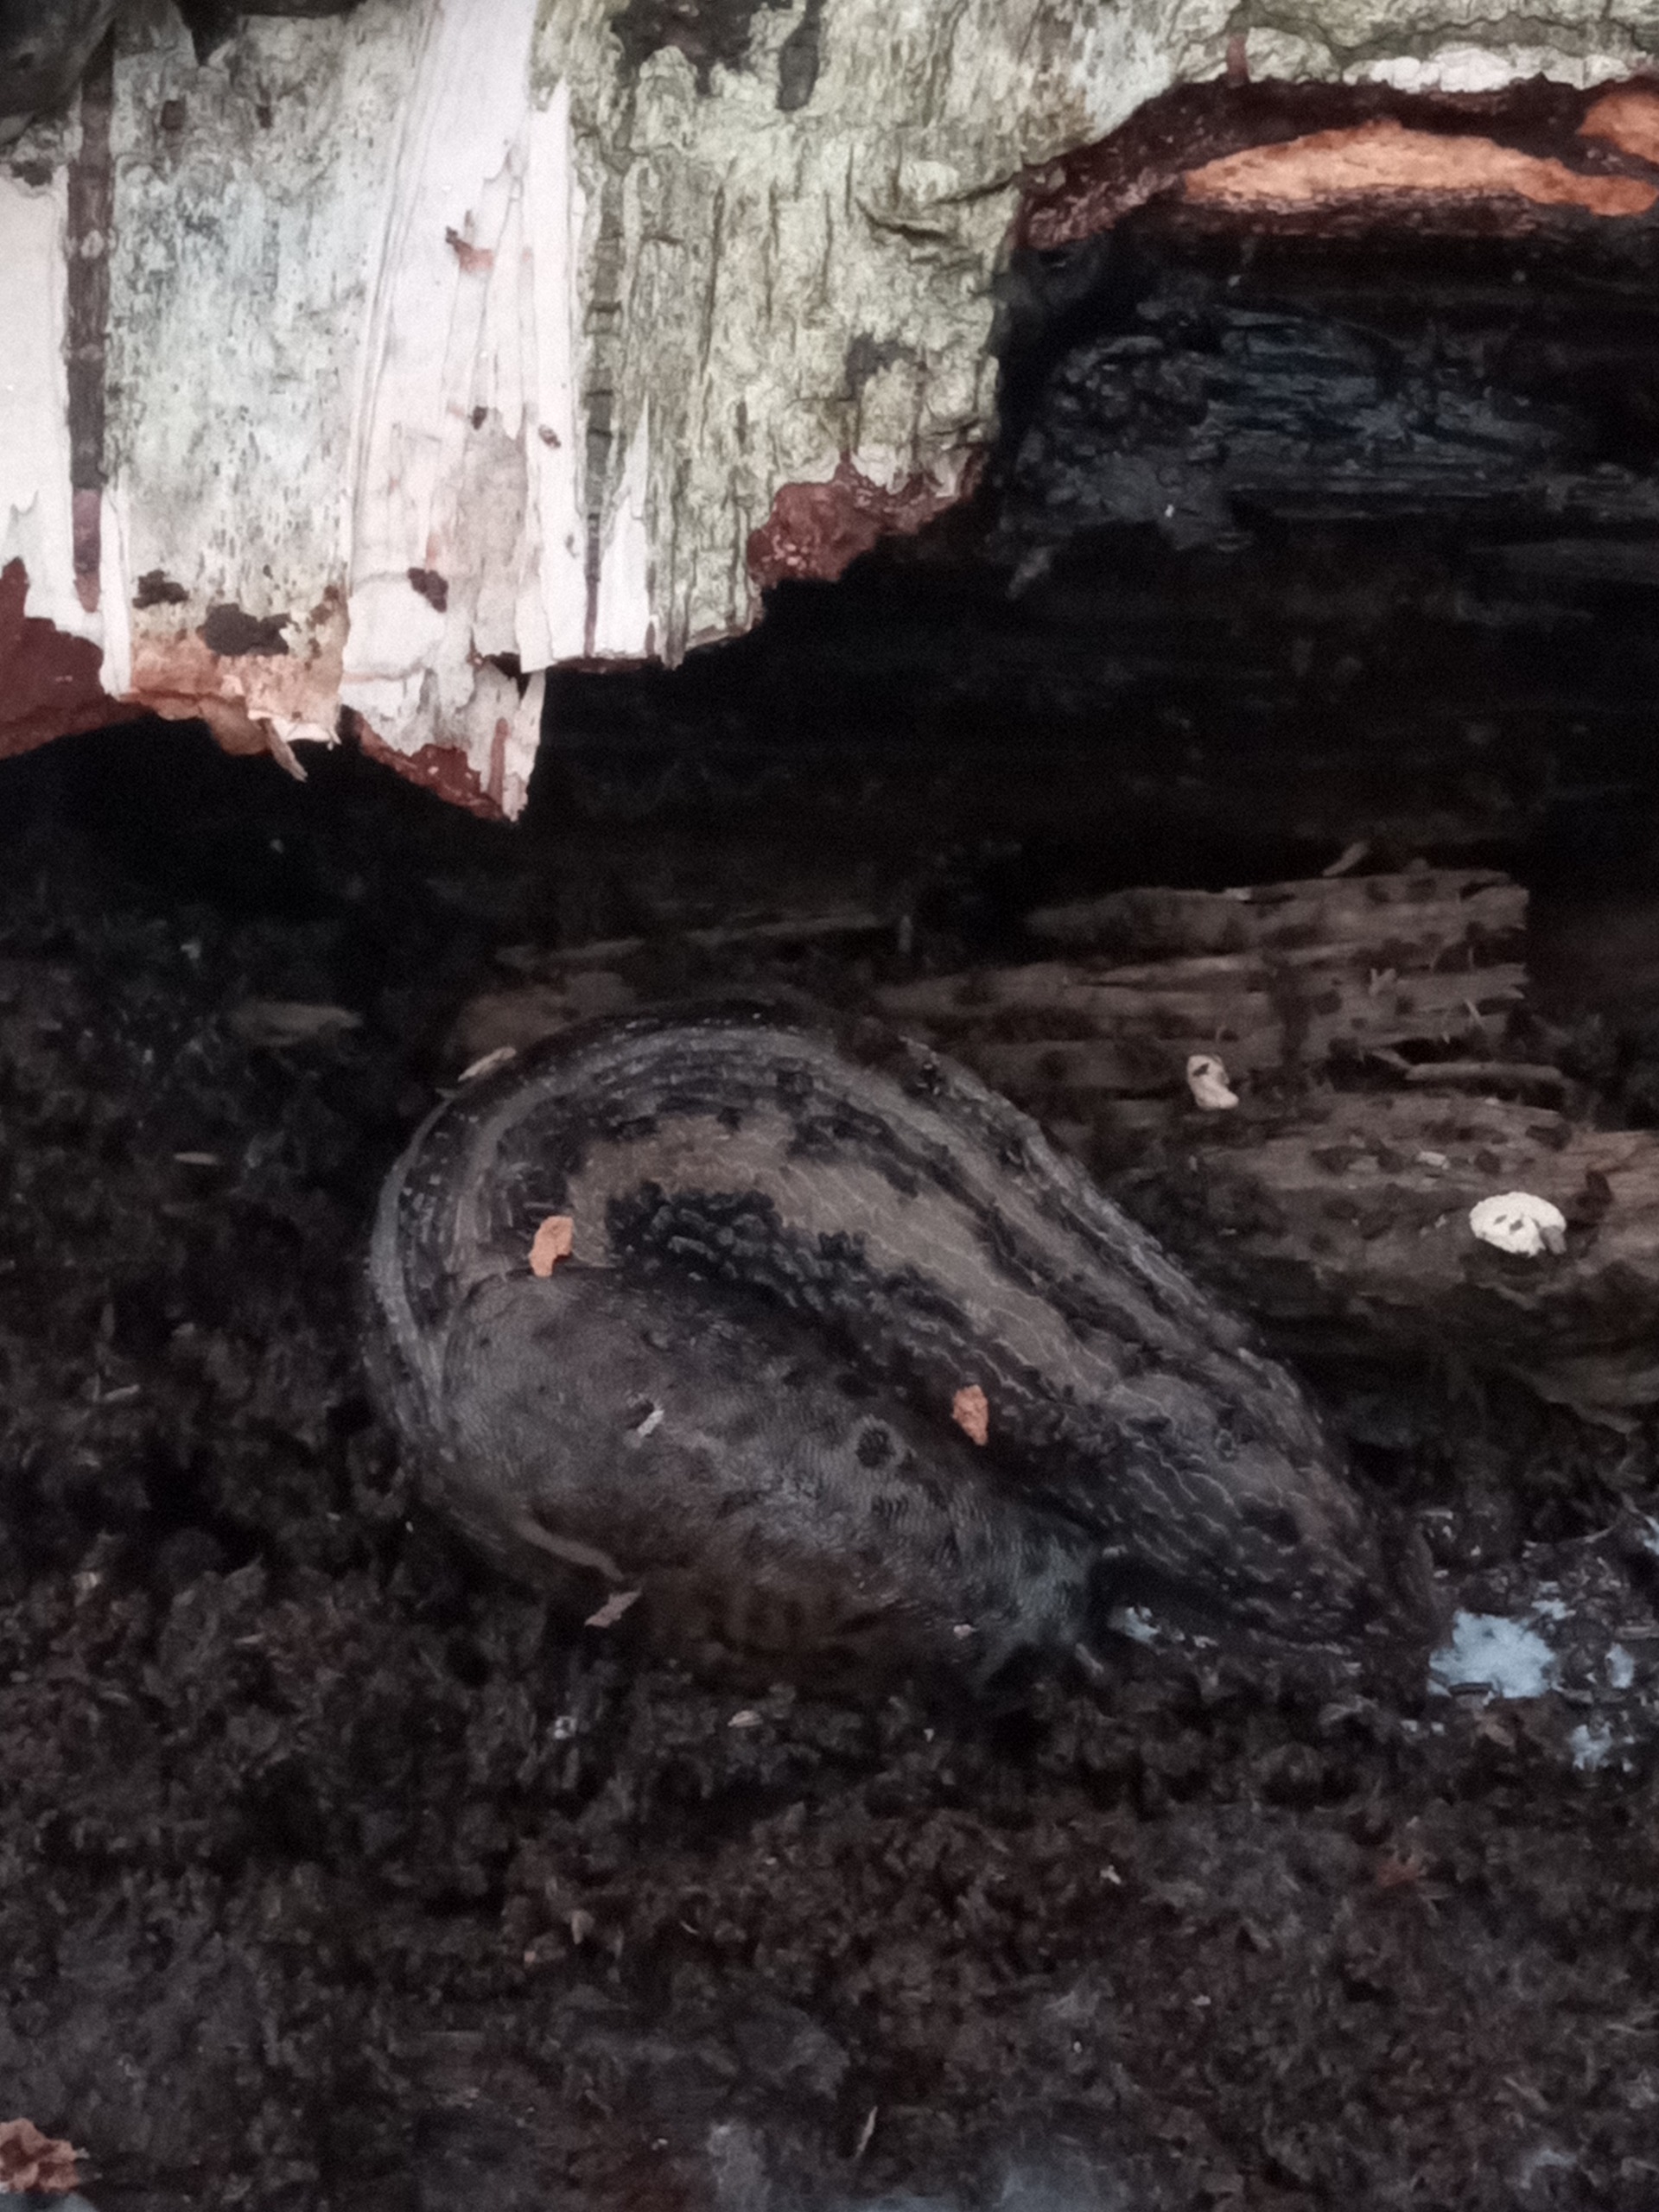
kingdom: Animalia
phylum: Mollusca
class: Gastropoda
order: Stylommatophora
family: Limacidae
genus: Limax
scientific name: Limax maximus
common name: Pantersnegl
